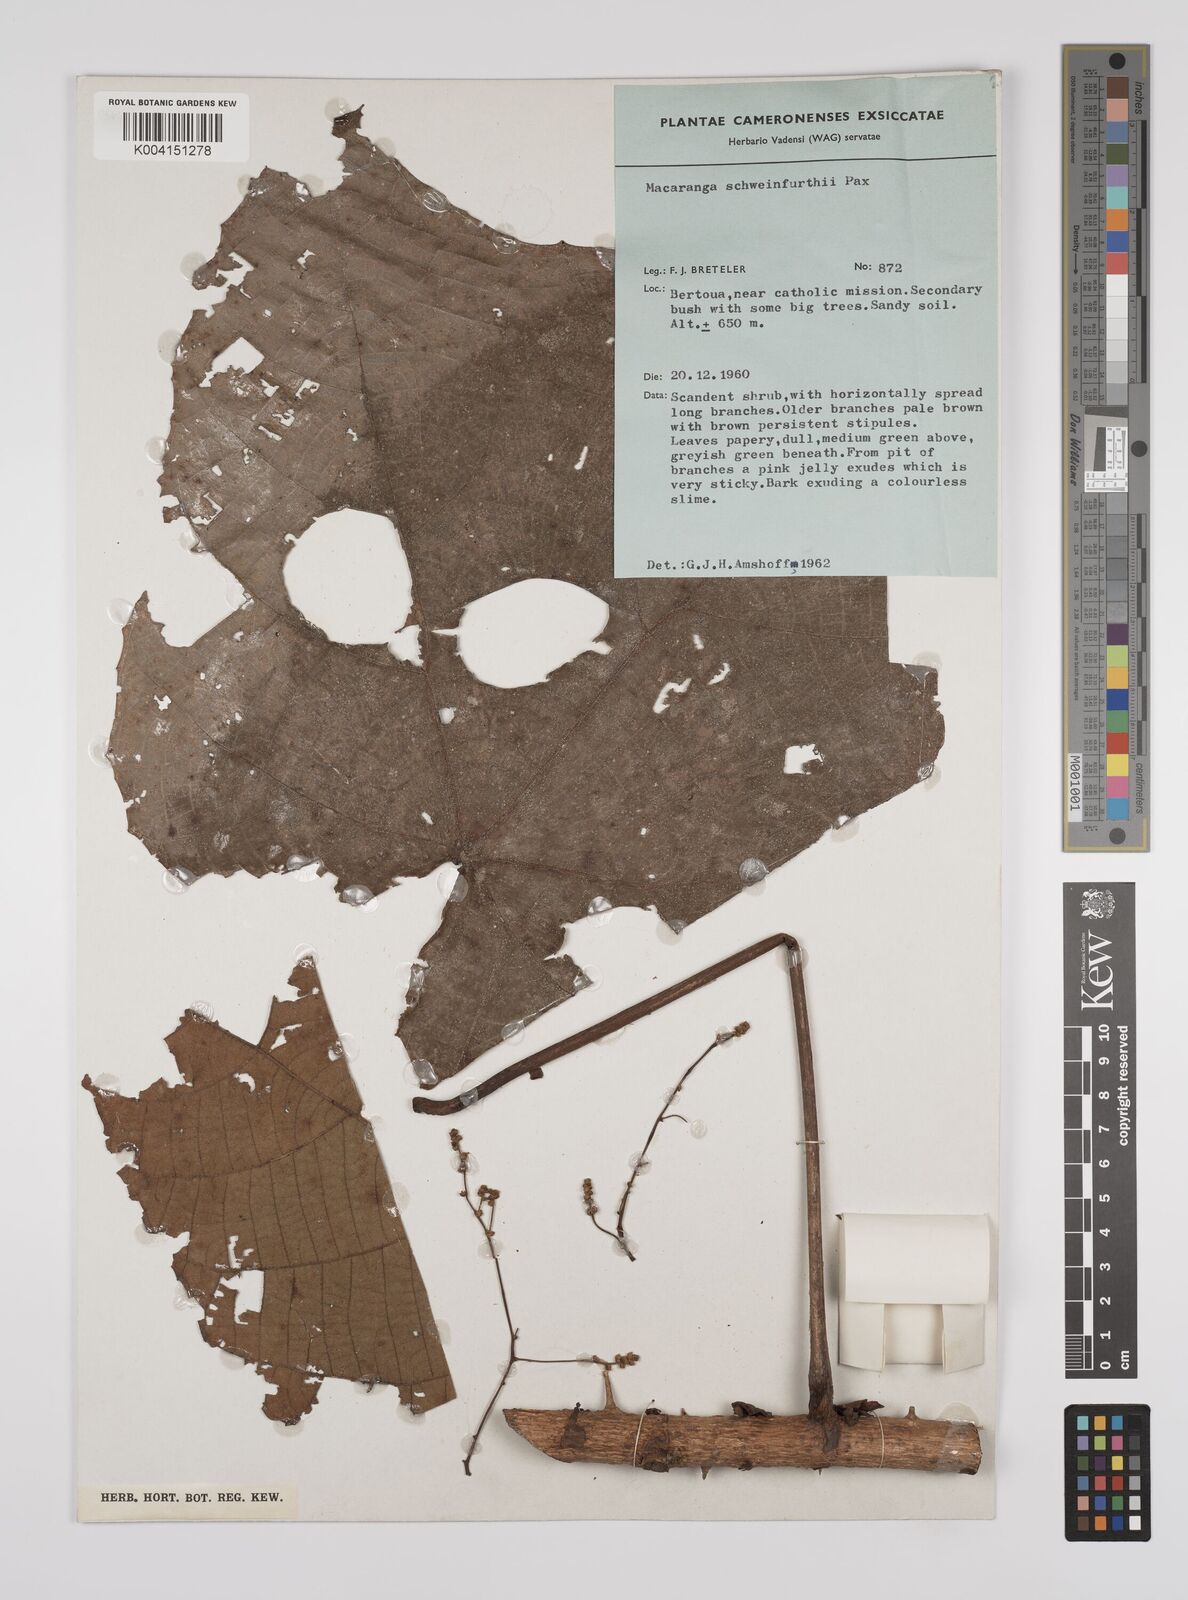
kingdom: Plantae
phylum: Tracheophyta
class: Magnoliopsida
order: Malpighiales
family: Euphorbiaceae
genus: Macaranga
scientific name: Macaranga schweinfurthii
